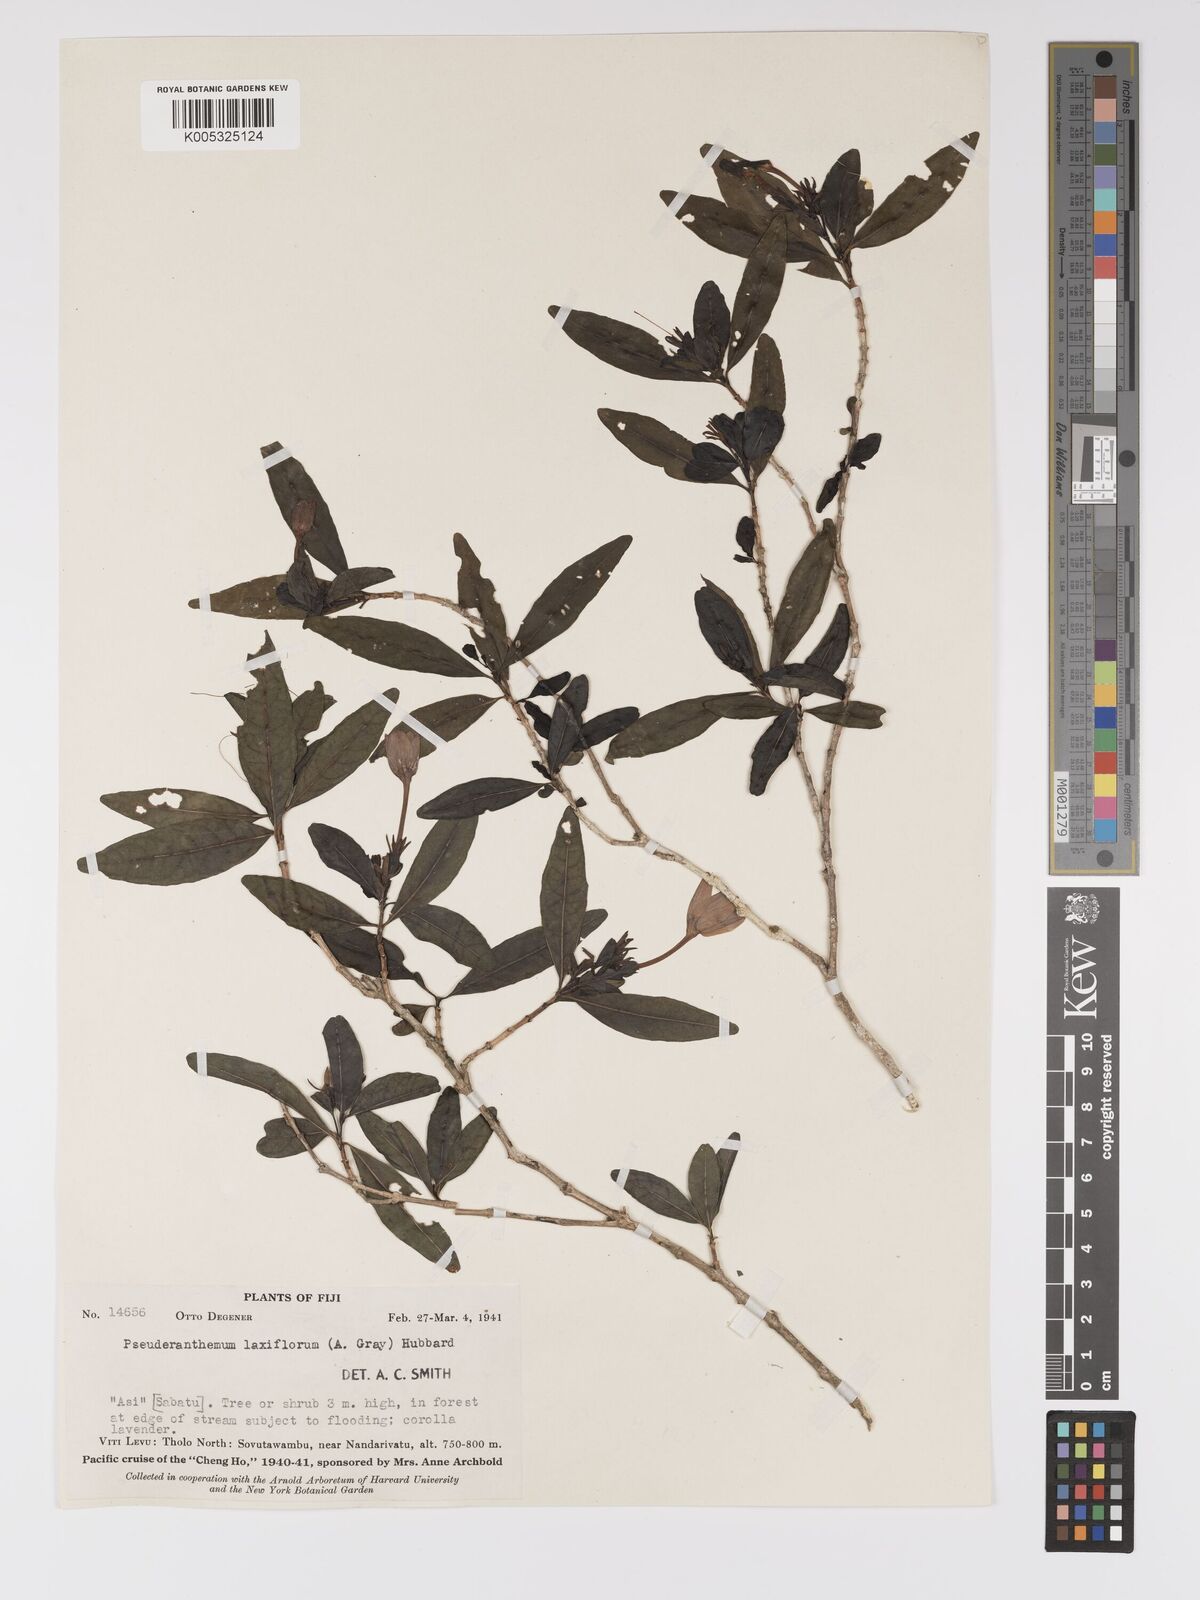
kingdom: Plantae
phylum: Tracheophyta
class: Magnoliopsida
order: Lamiales
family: Acanthaceae
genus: Pseuderanthemum
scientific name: Pseuderanthemum laxiflorum
